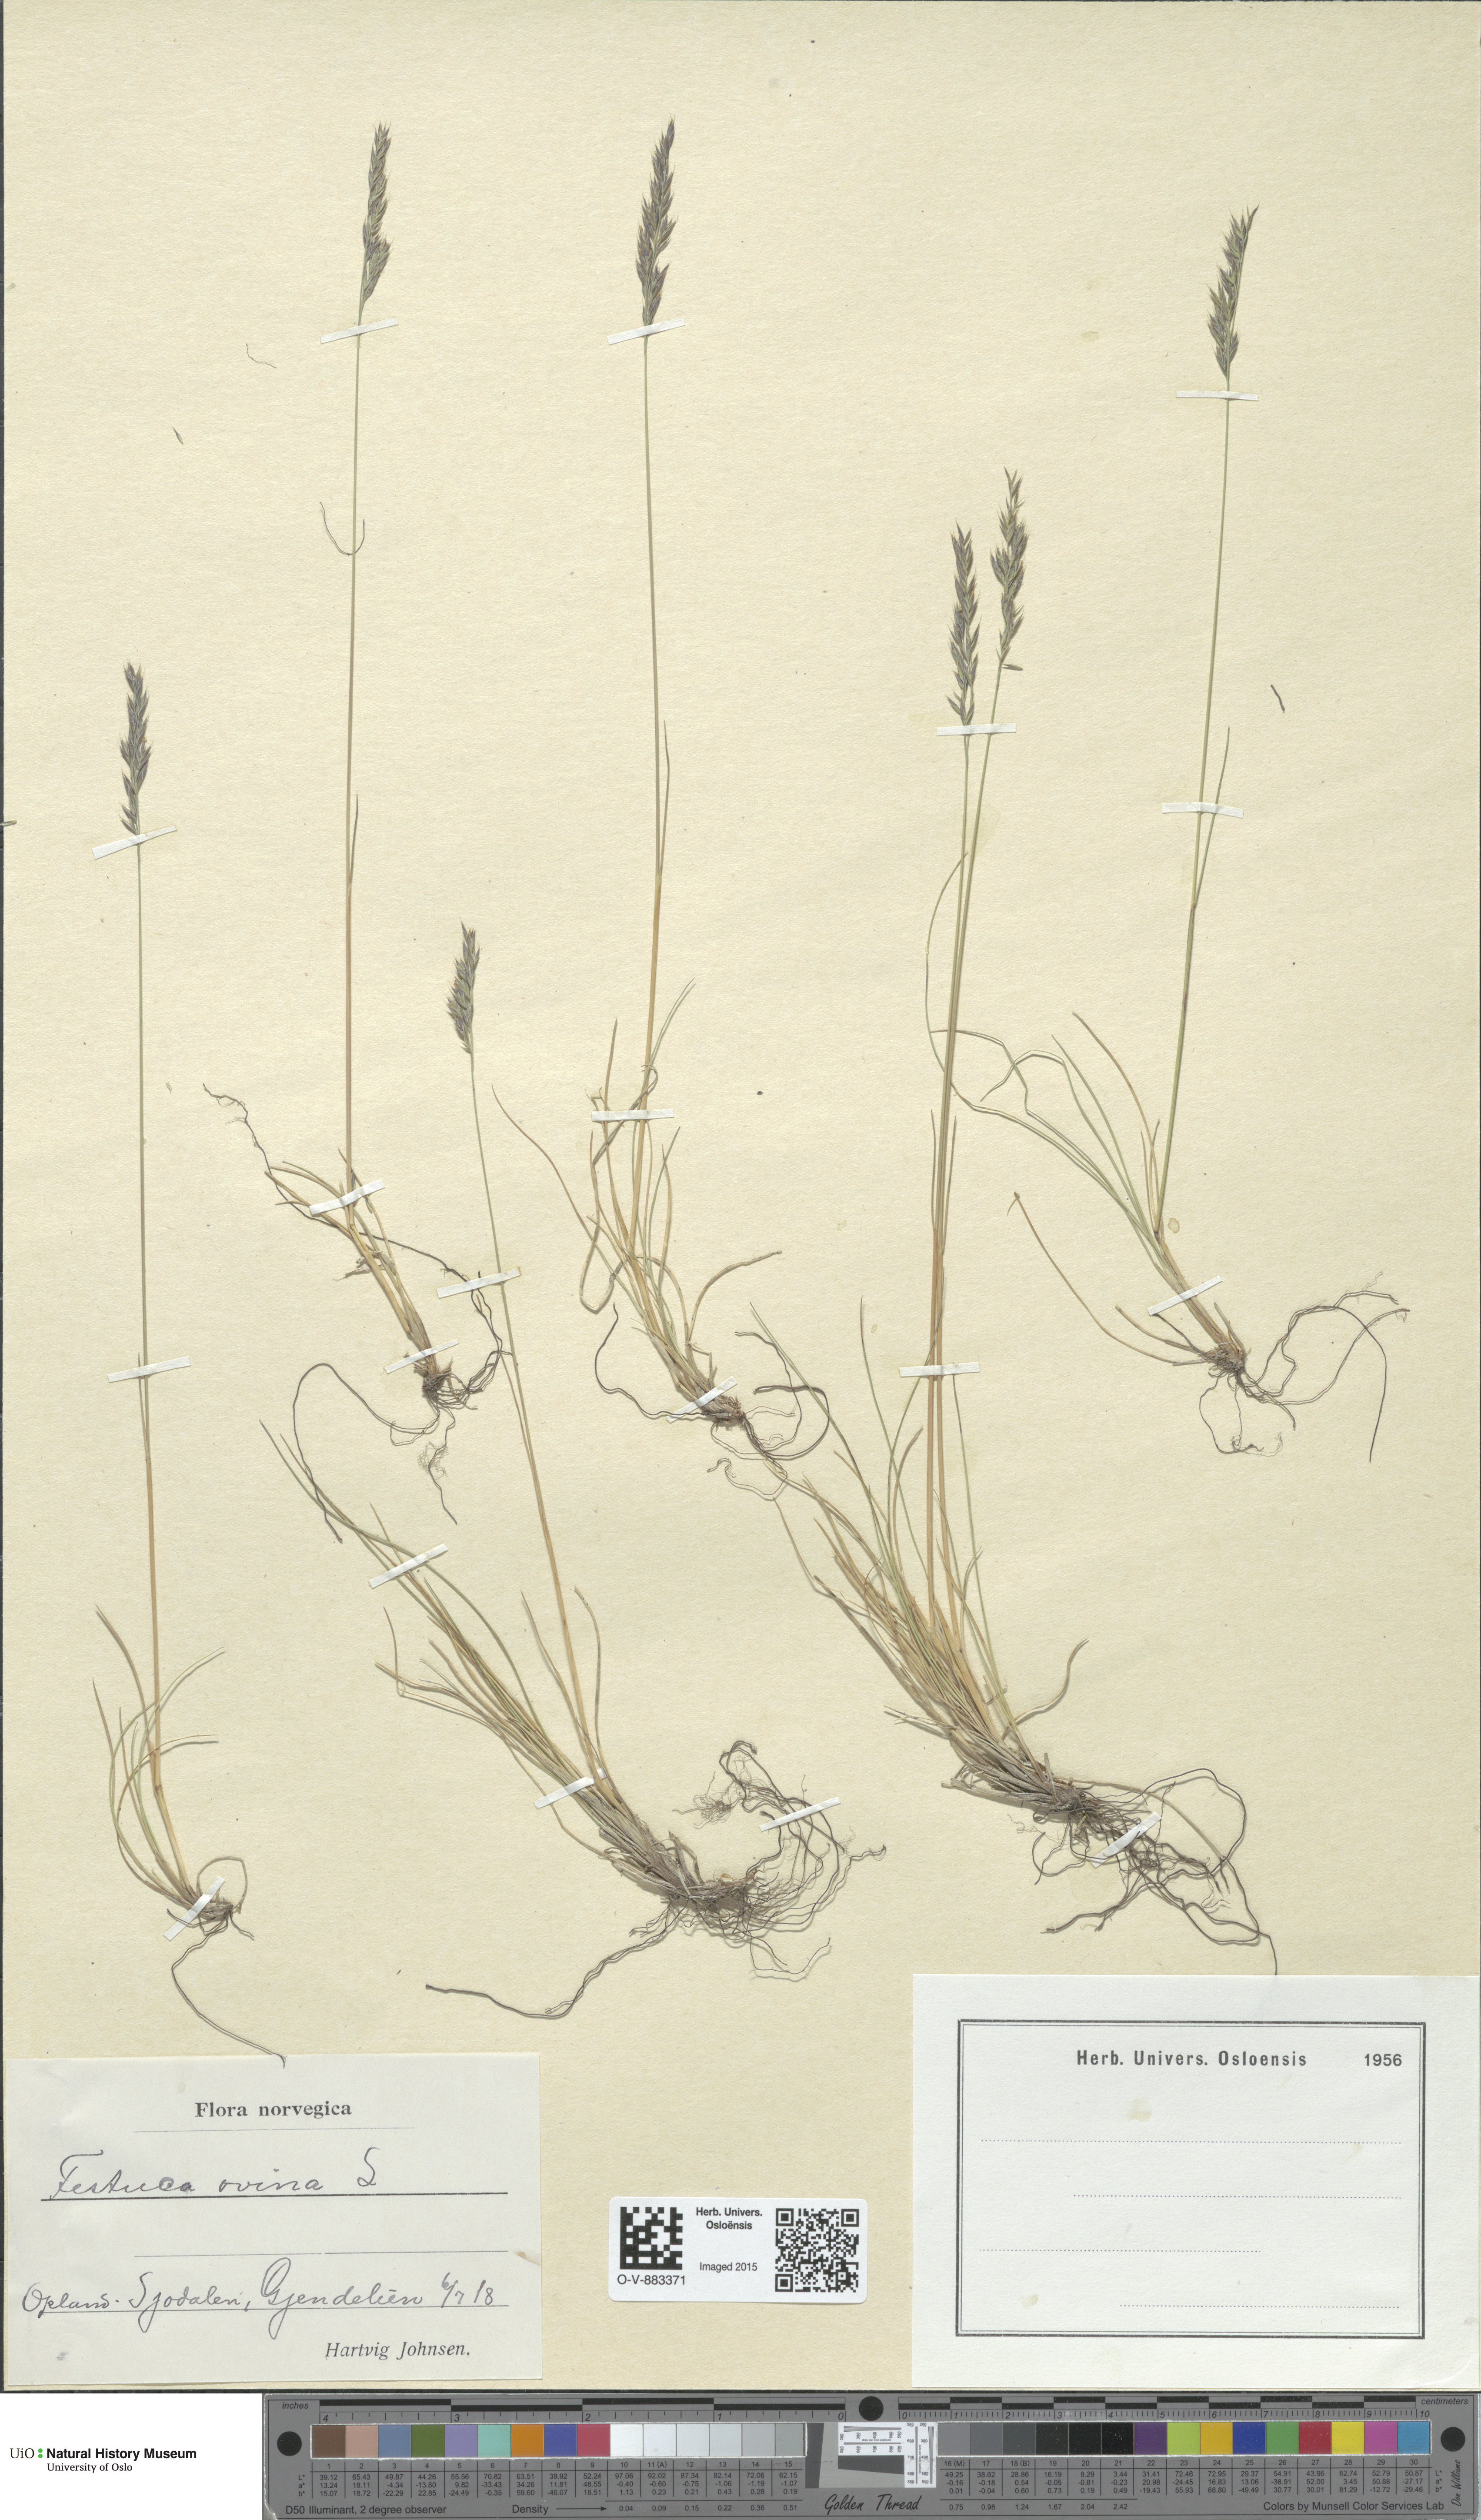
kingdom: Plantae
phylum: Tracheophyta
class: Liliopsida
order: Poales
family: Poaceae
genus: Festuca
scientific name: Festuca ovina
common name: Sheep fescue
